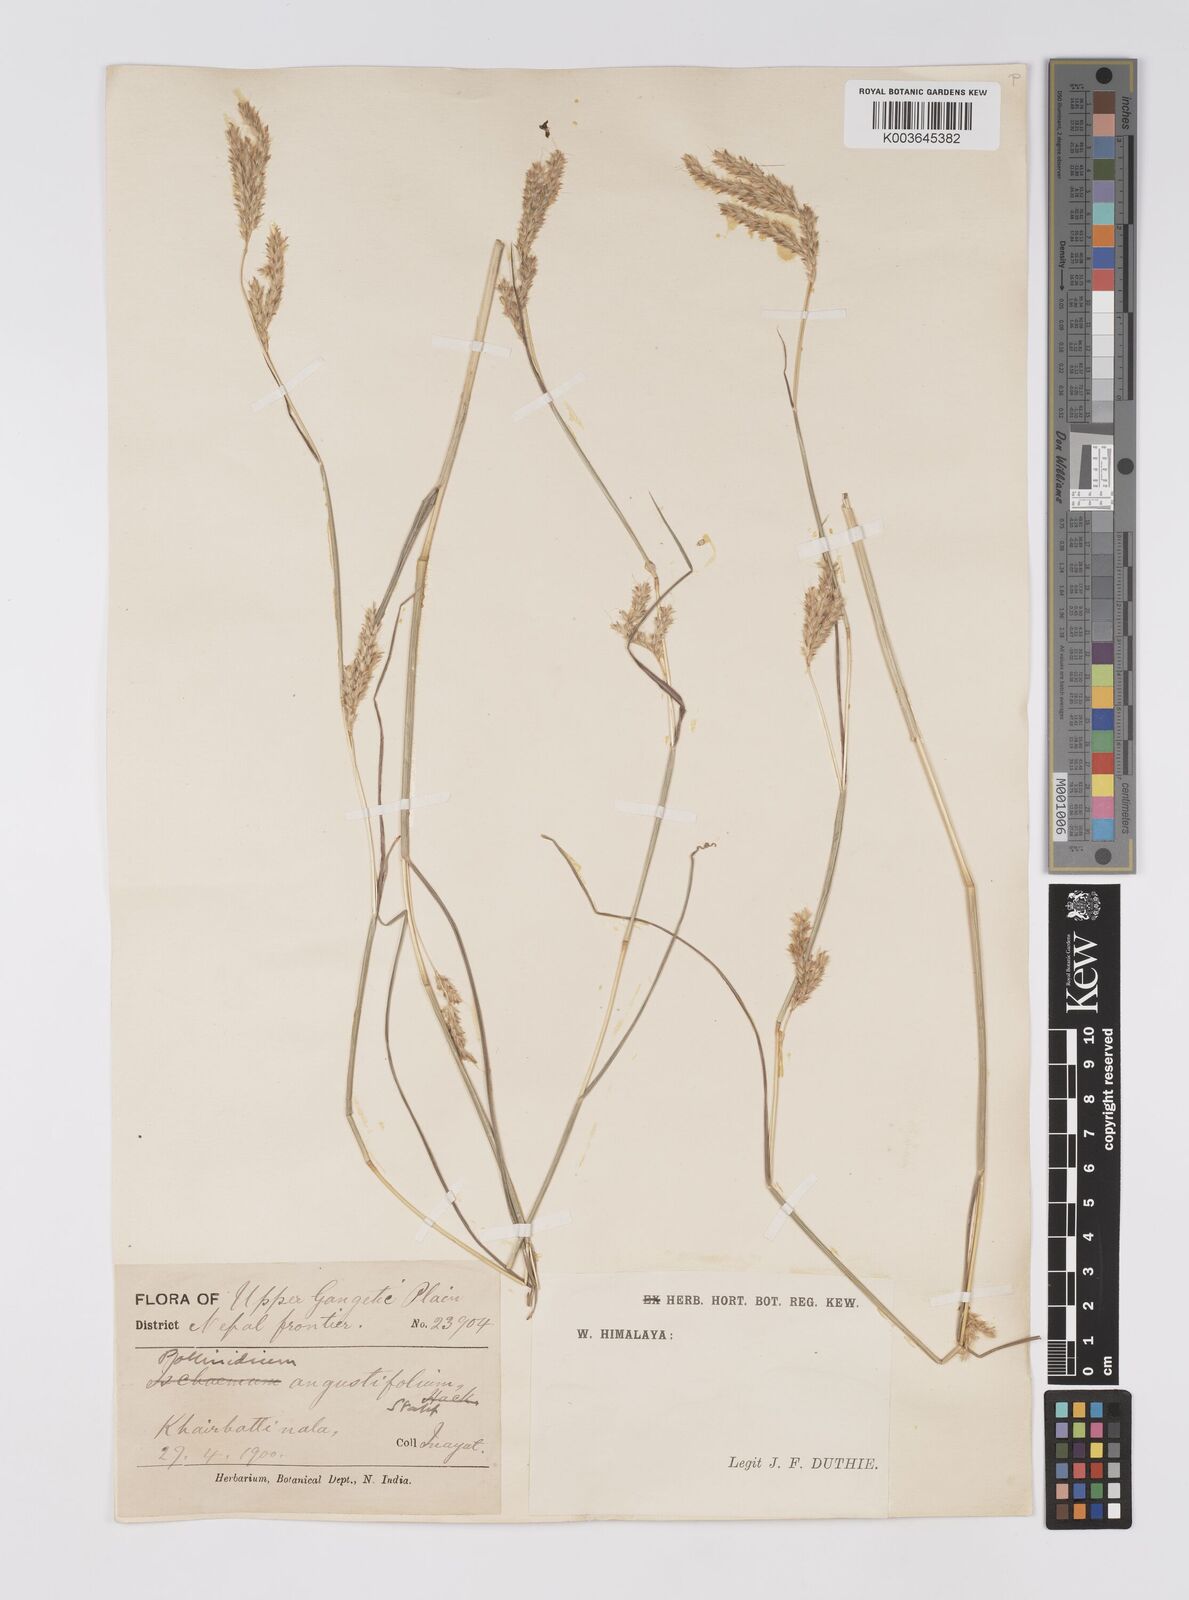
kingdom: Plantae
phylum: Tracheophyta
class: Liliopsida
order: Poales
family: Poaceae
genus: Eulaliopsis
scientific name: Eulaliopsis binata
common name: Baib grass
